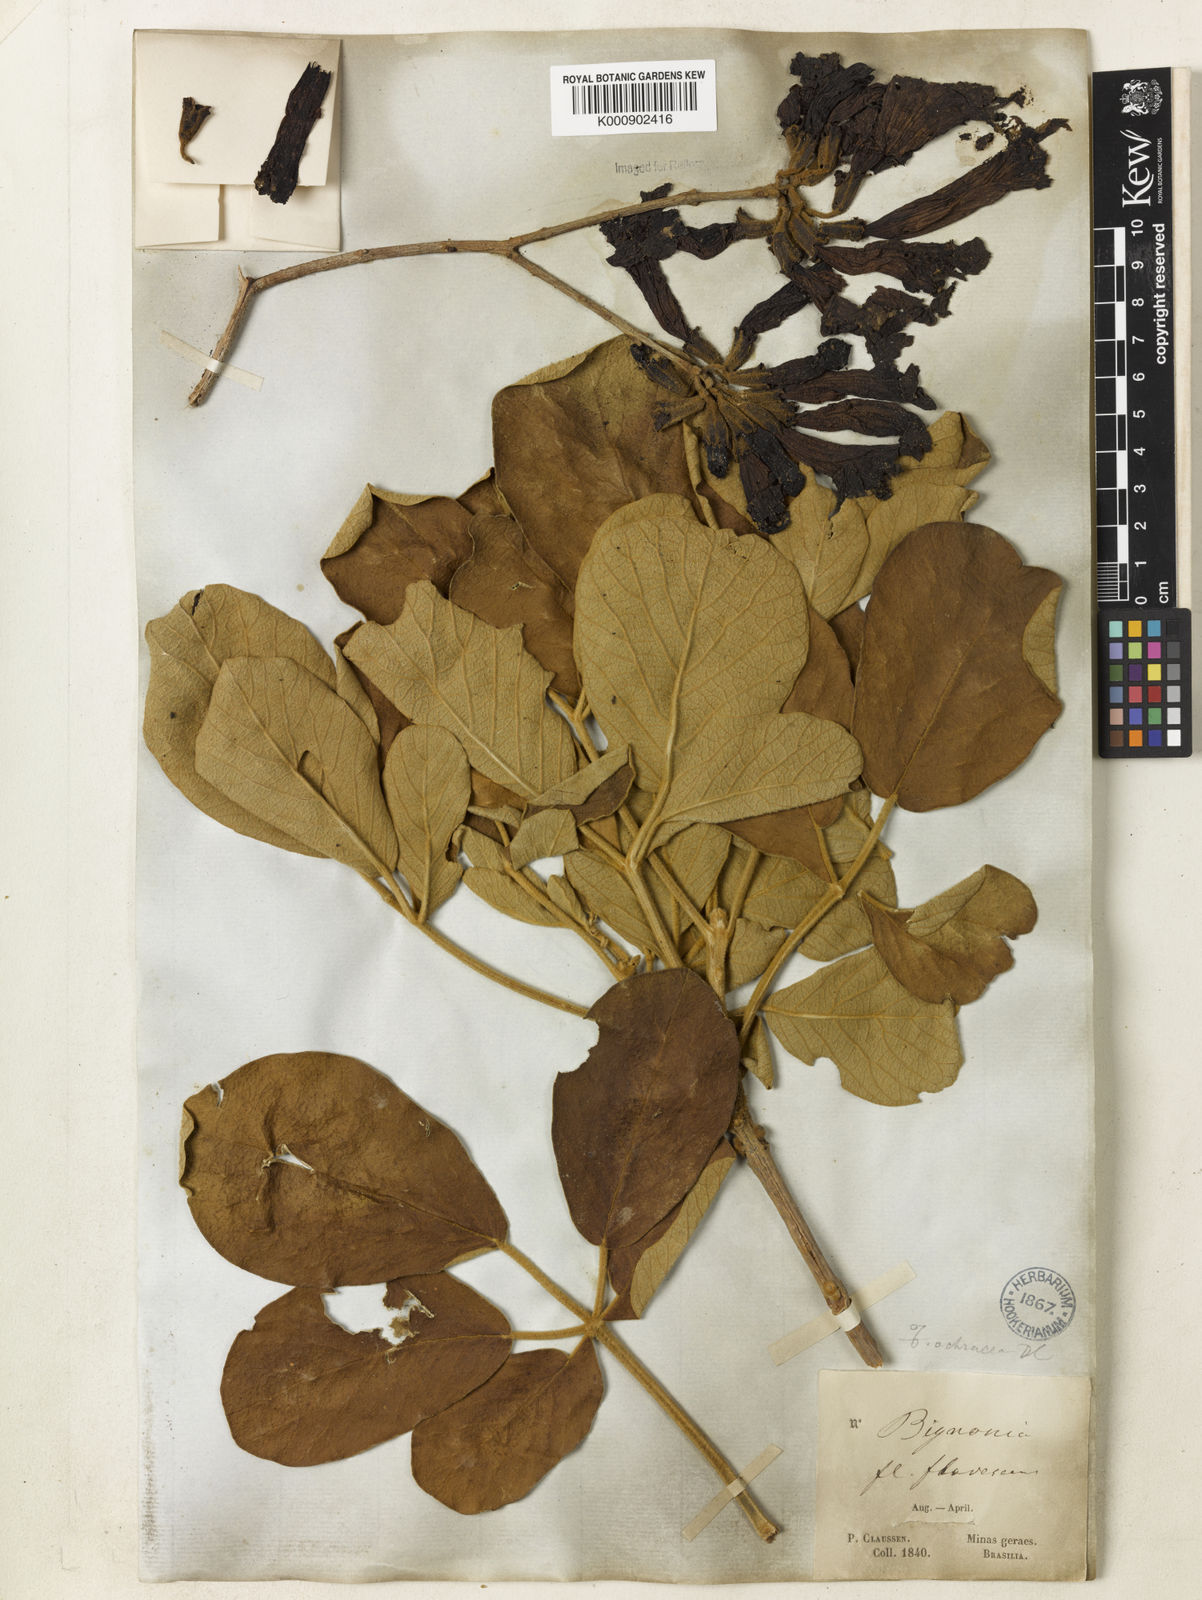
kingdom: Plantae
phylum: Tracheophyta
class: Magnoliopsida
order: Lamiales
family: Bignoniaceae
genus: Handroanthus
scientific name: Handroanthus ochraceus
